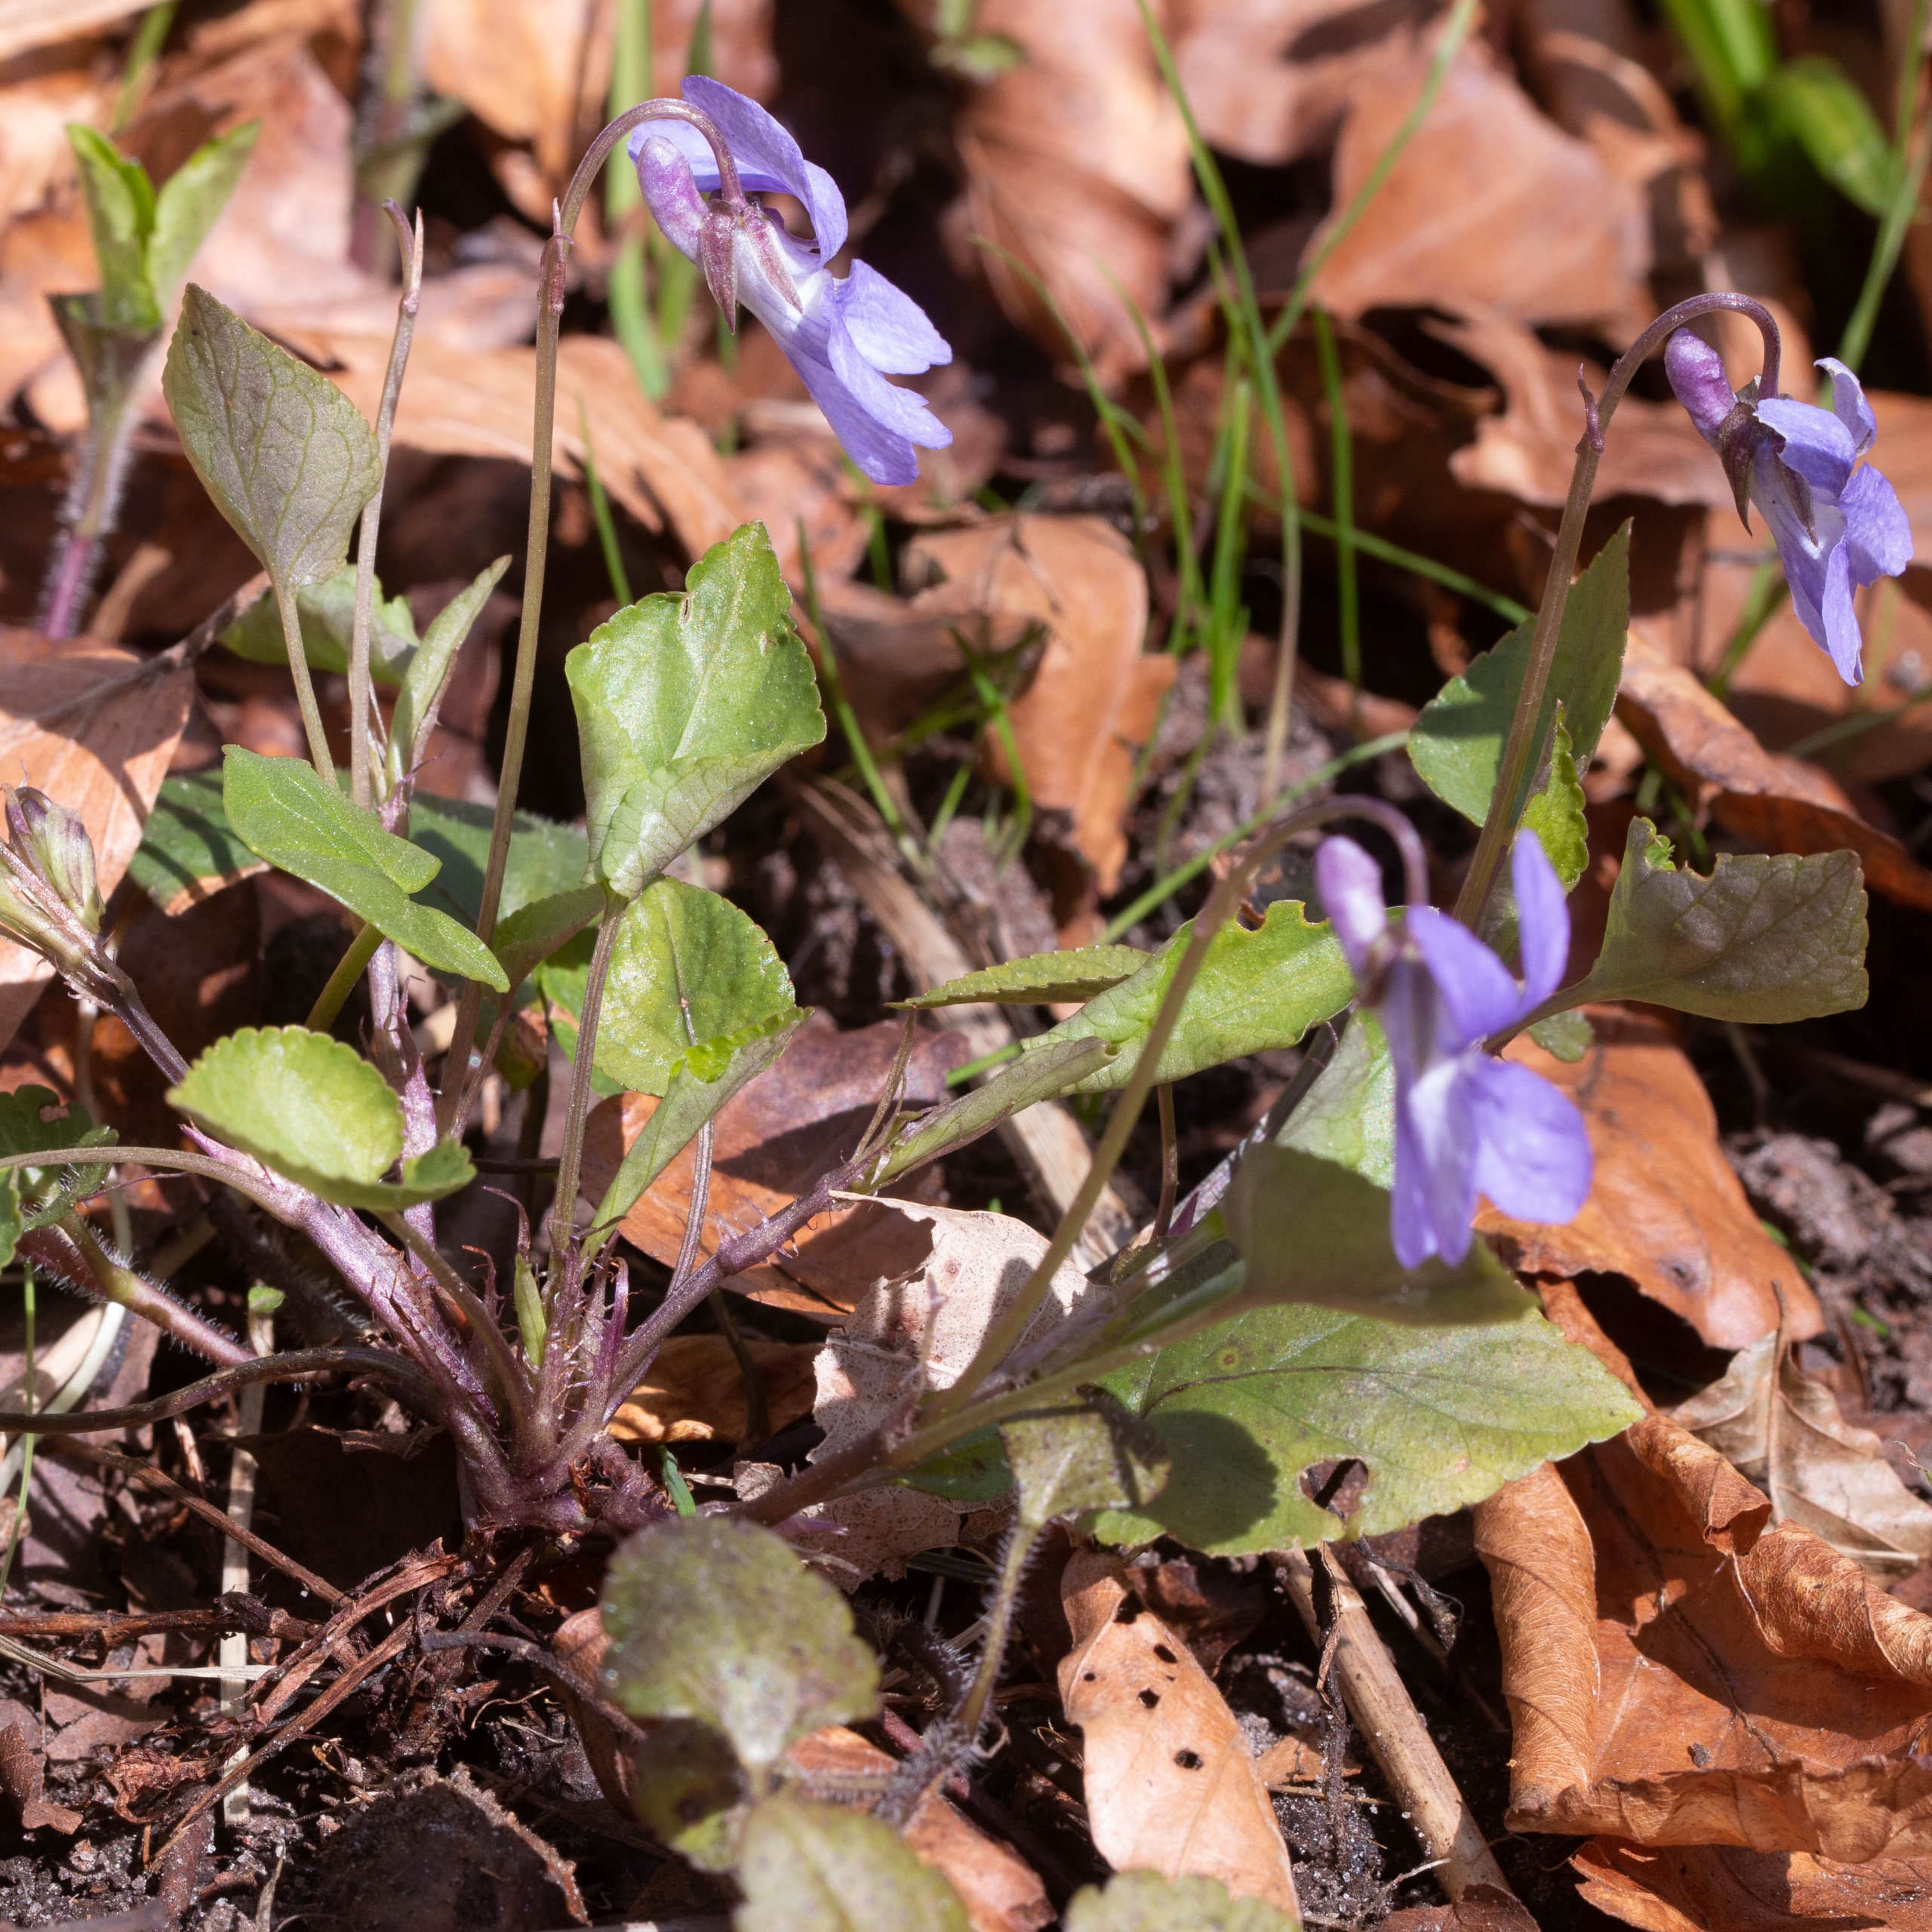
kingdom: Plantae
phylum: Tracheophyta
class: Magnoliopsida
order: Malpighiales
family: Violaceae
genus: Viola
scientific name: Viola reichenbachiana
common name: Skov-viol
